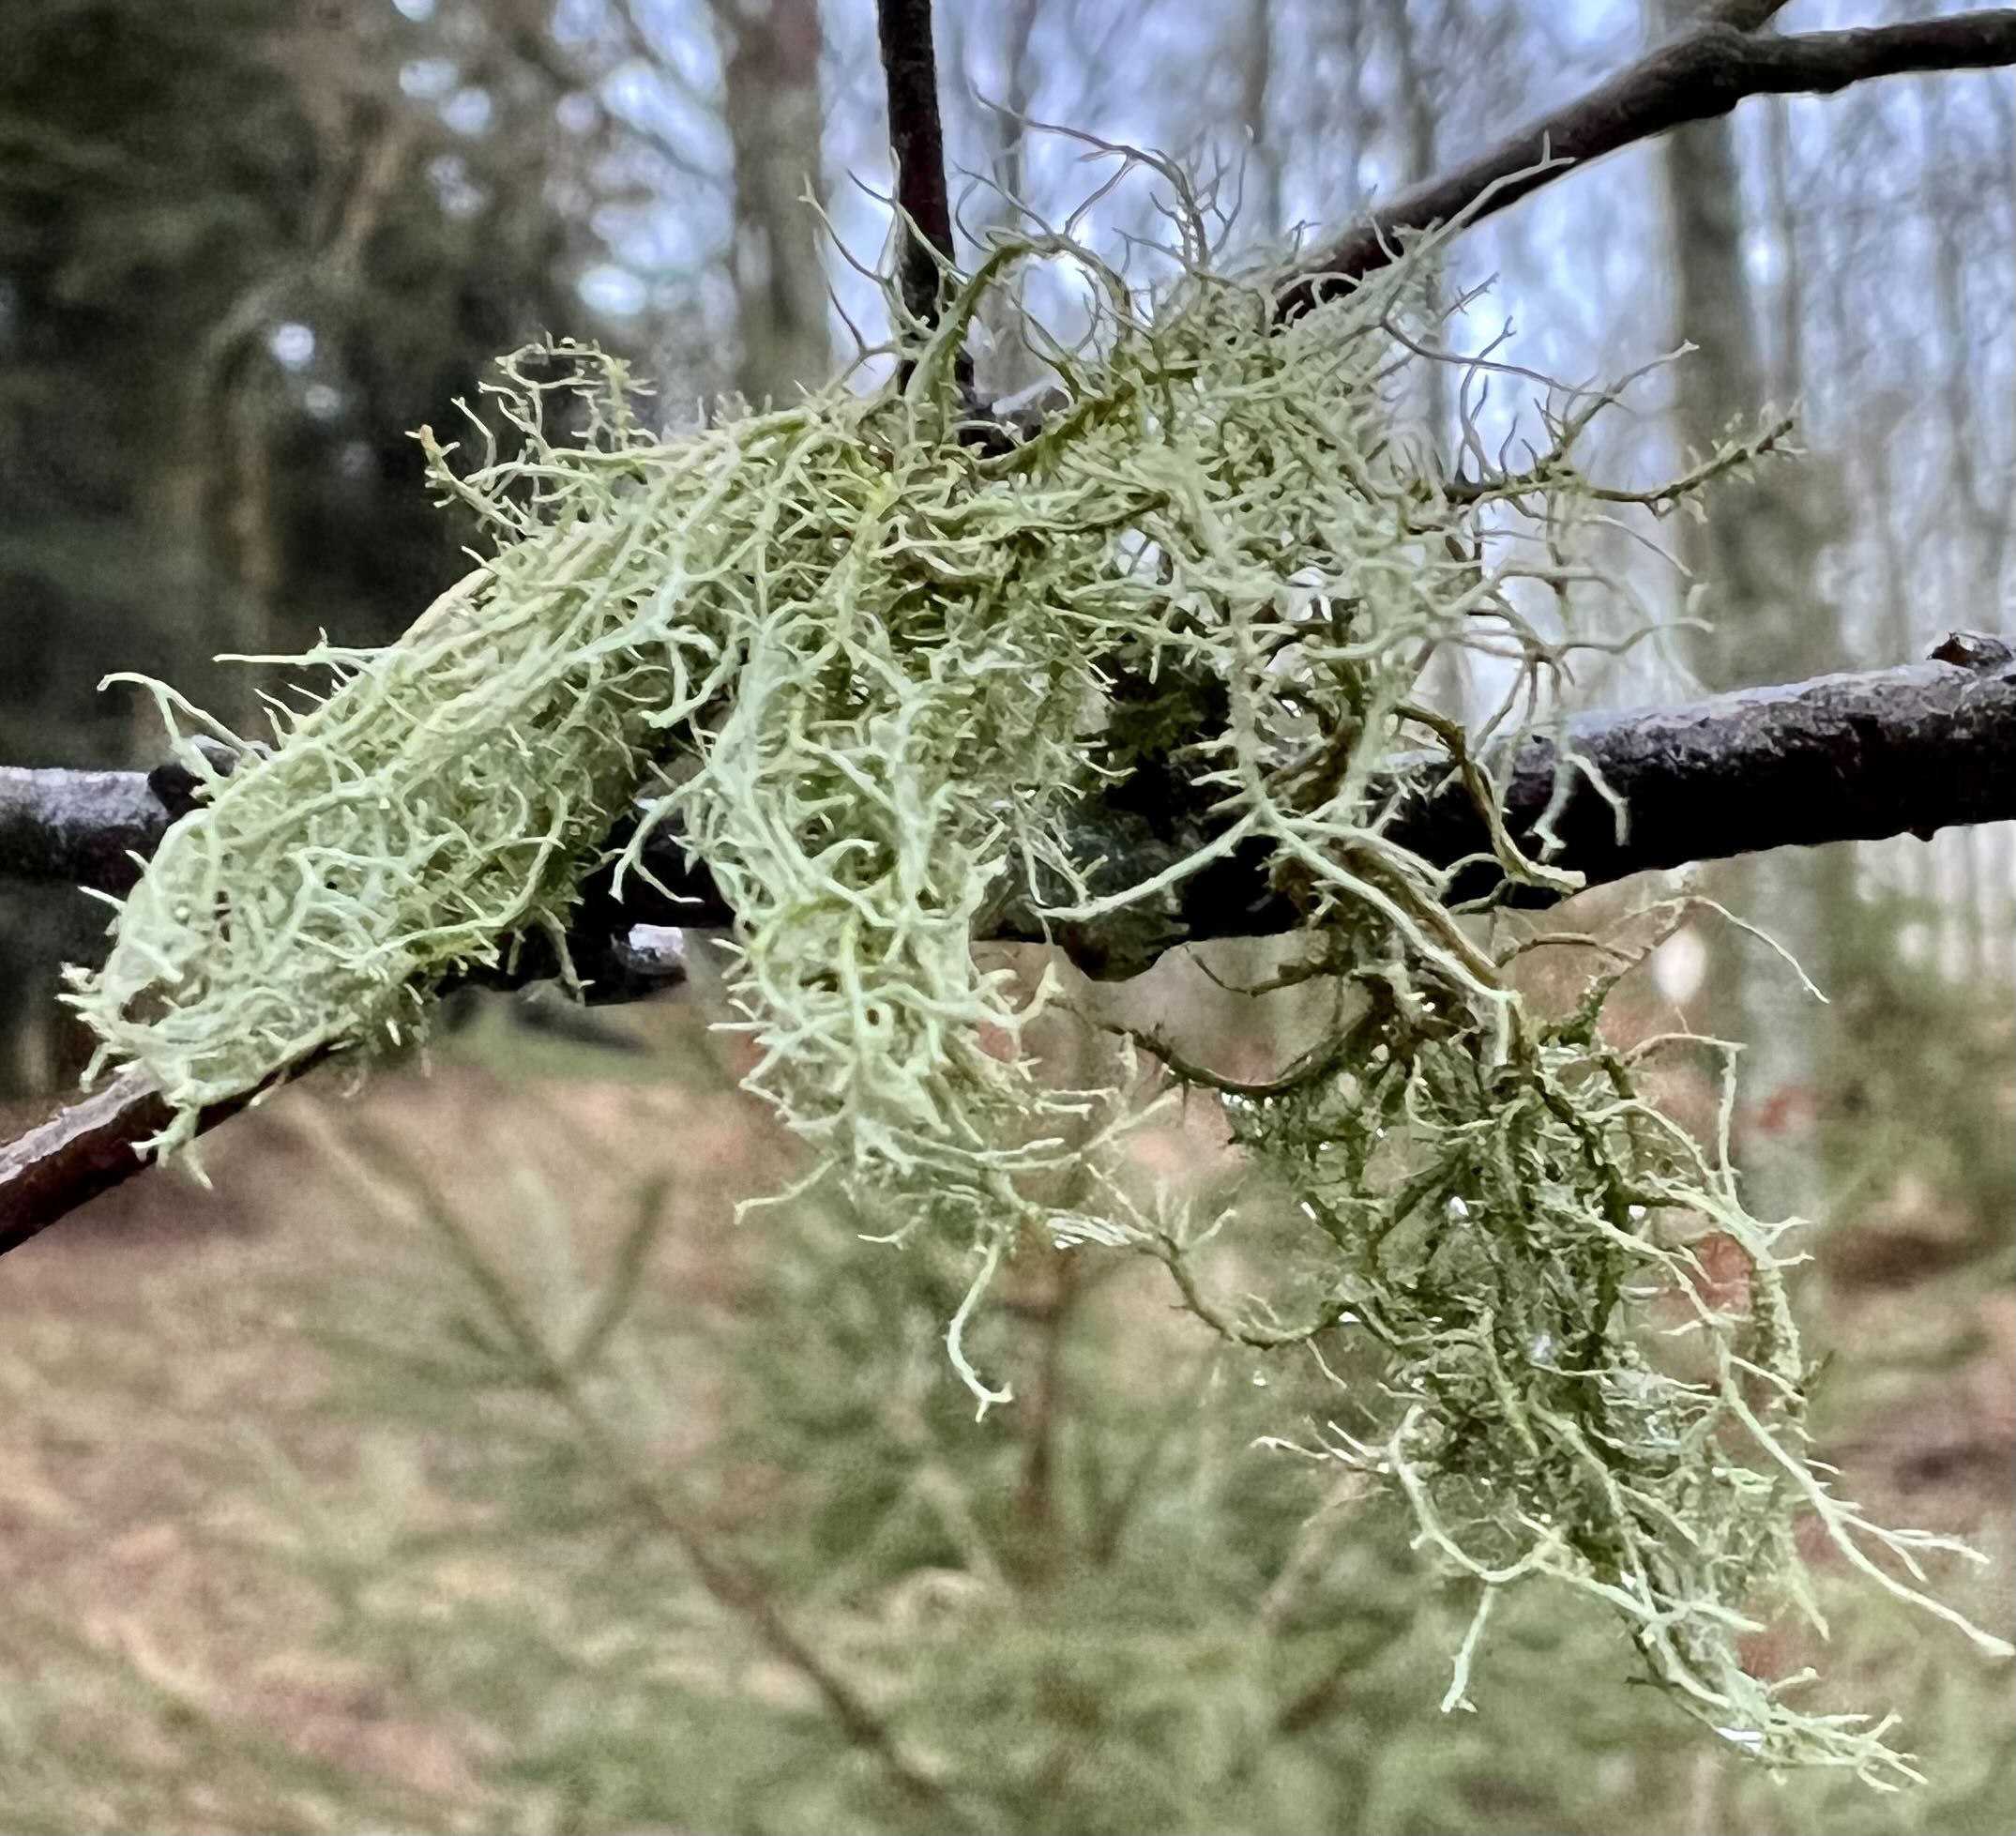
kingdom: Fungi
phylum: Ascomycota
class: Lecanoromycetes
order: Lecanorales
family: Parmeliaceae
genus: Usnea
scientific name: Usnea
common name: skæglav
